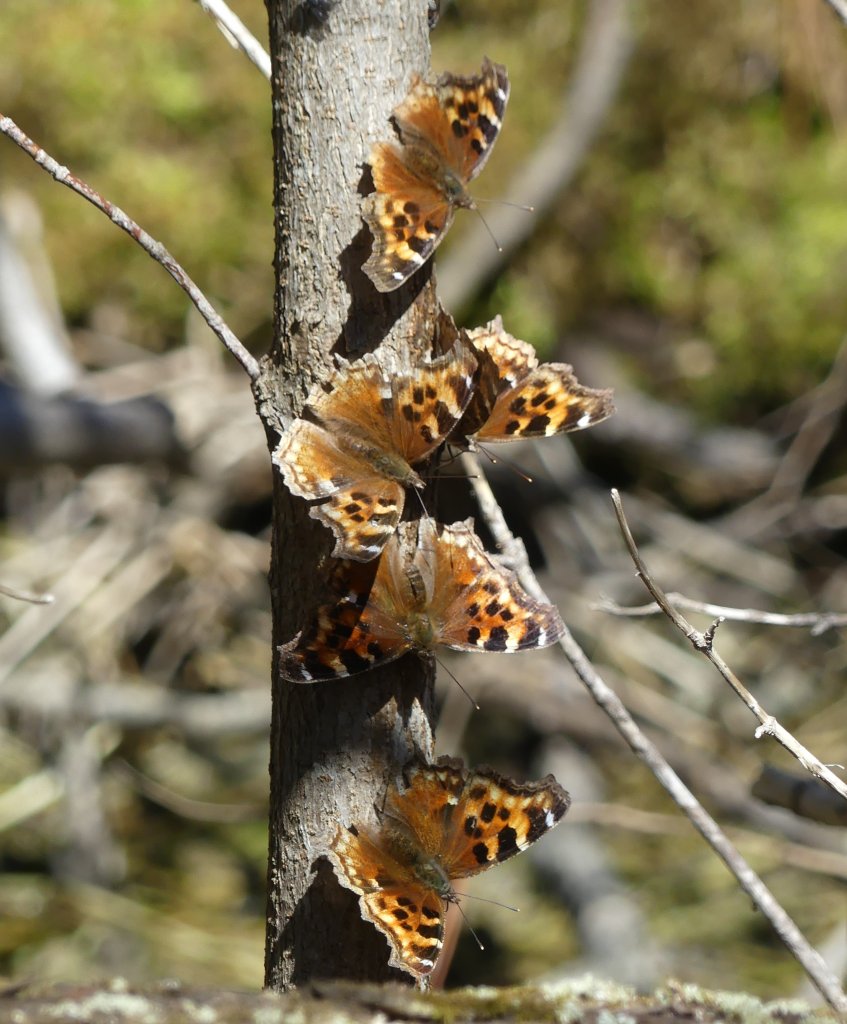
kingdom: Animalia
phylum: Arthropoda
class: Insecta
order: Lepidoptera
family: Nymphalidae
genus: Polygonia
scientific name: Polygonia vaualbum
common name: Compton Tortoiseshell
